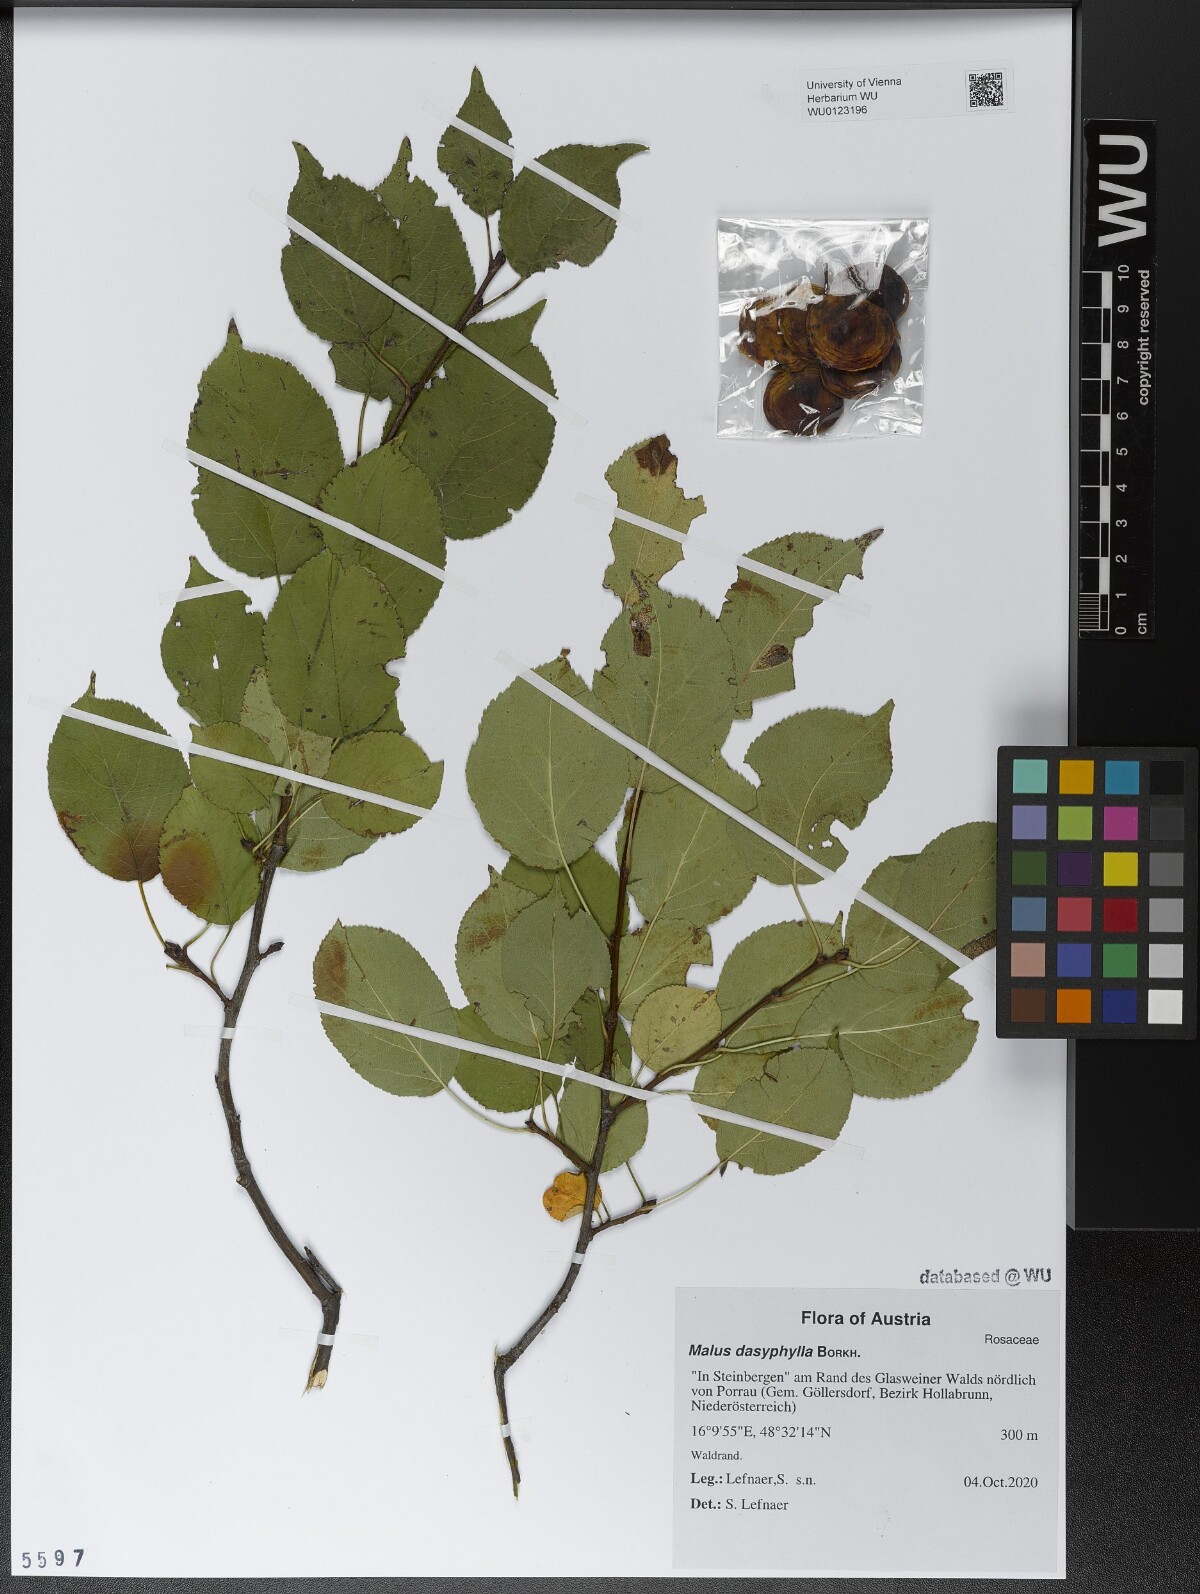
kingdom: Plantae
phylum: Tracheophyta
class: Magnoliopsida
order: Rosales
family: Rosaceae
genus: Malus
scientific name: Malus dasyphylla
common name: Paradise apple
